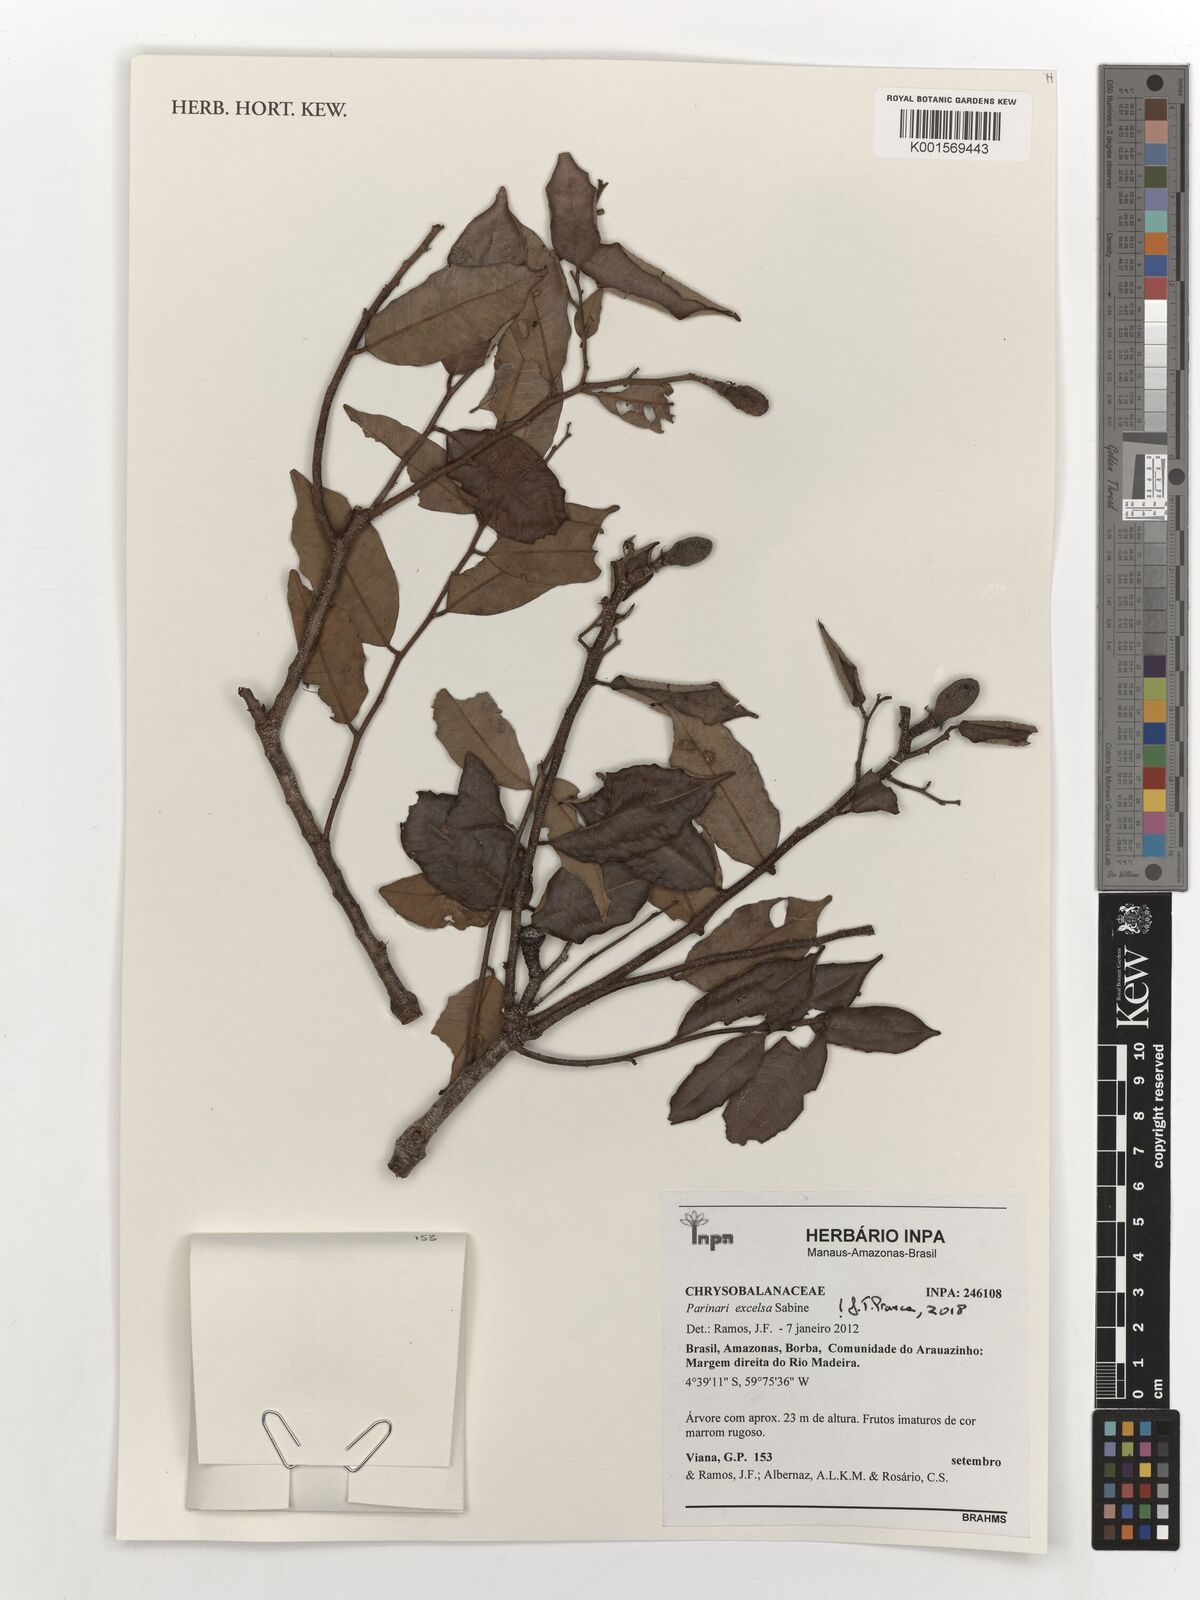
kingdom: Plantae
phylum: Tracheophyta
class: Magnoliopsida
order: Malpighiales
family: Chrysobalanaceae
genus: Parinari
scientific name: Parinari excelsa
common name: Guinea-plum
